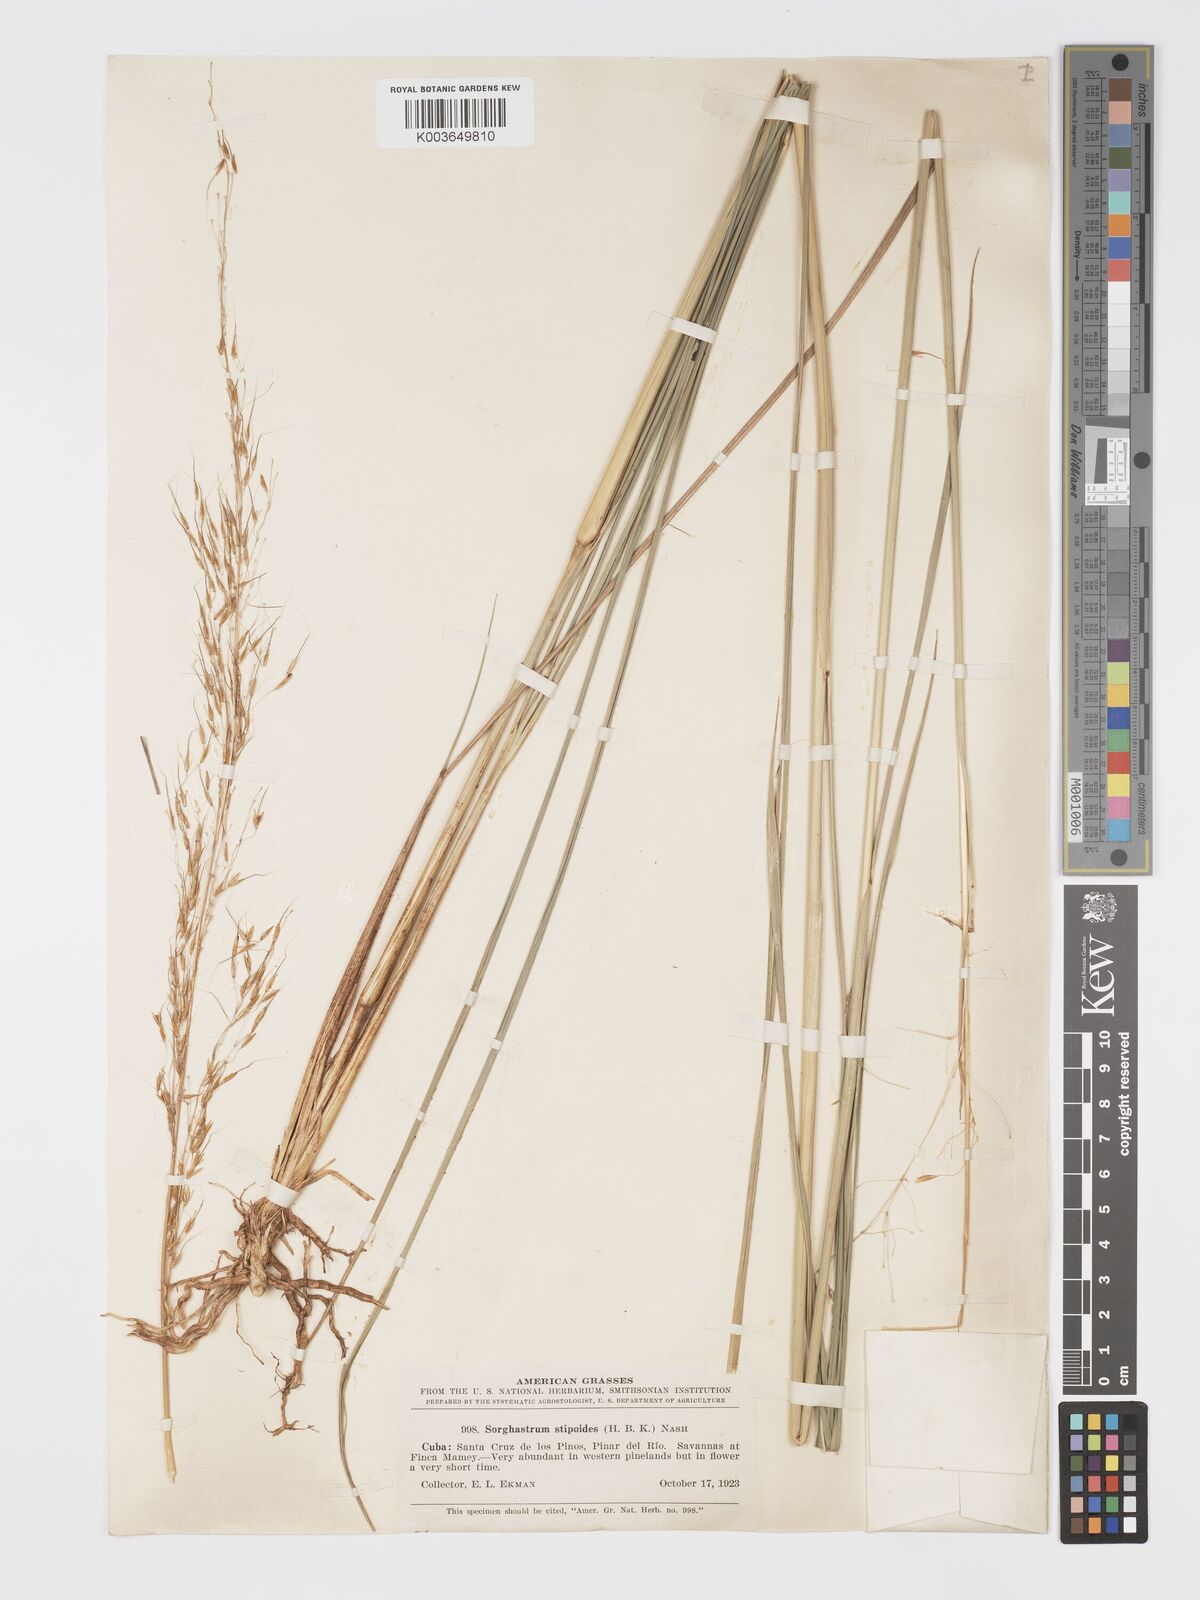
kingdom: Plantae
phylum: Tracheophyta
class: Liliopsida
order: Poales
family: Poaceae
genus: Sorghastrum
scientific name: Sorghastrum stipoides
